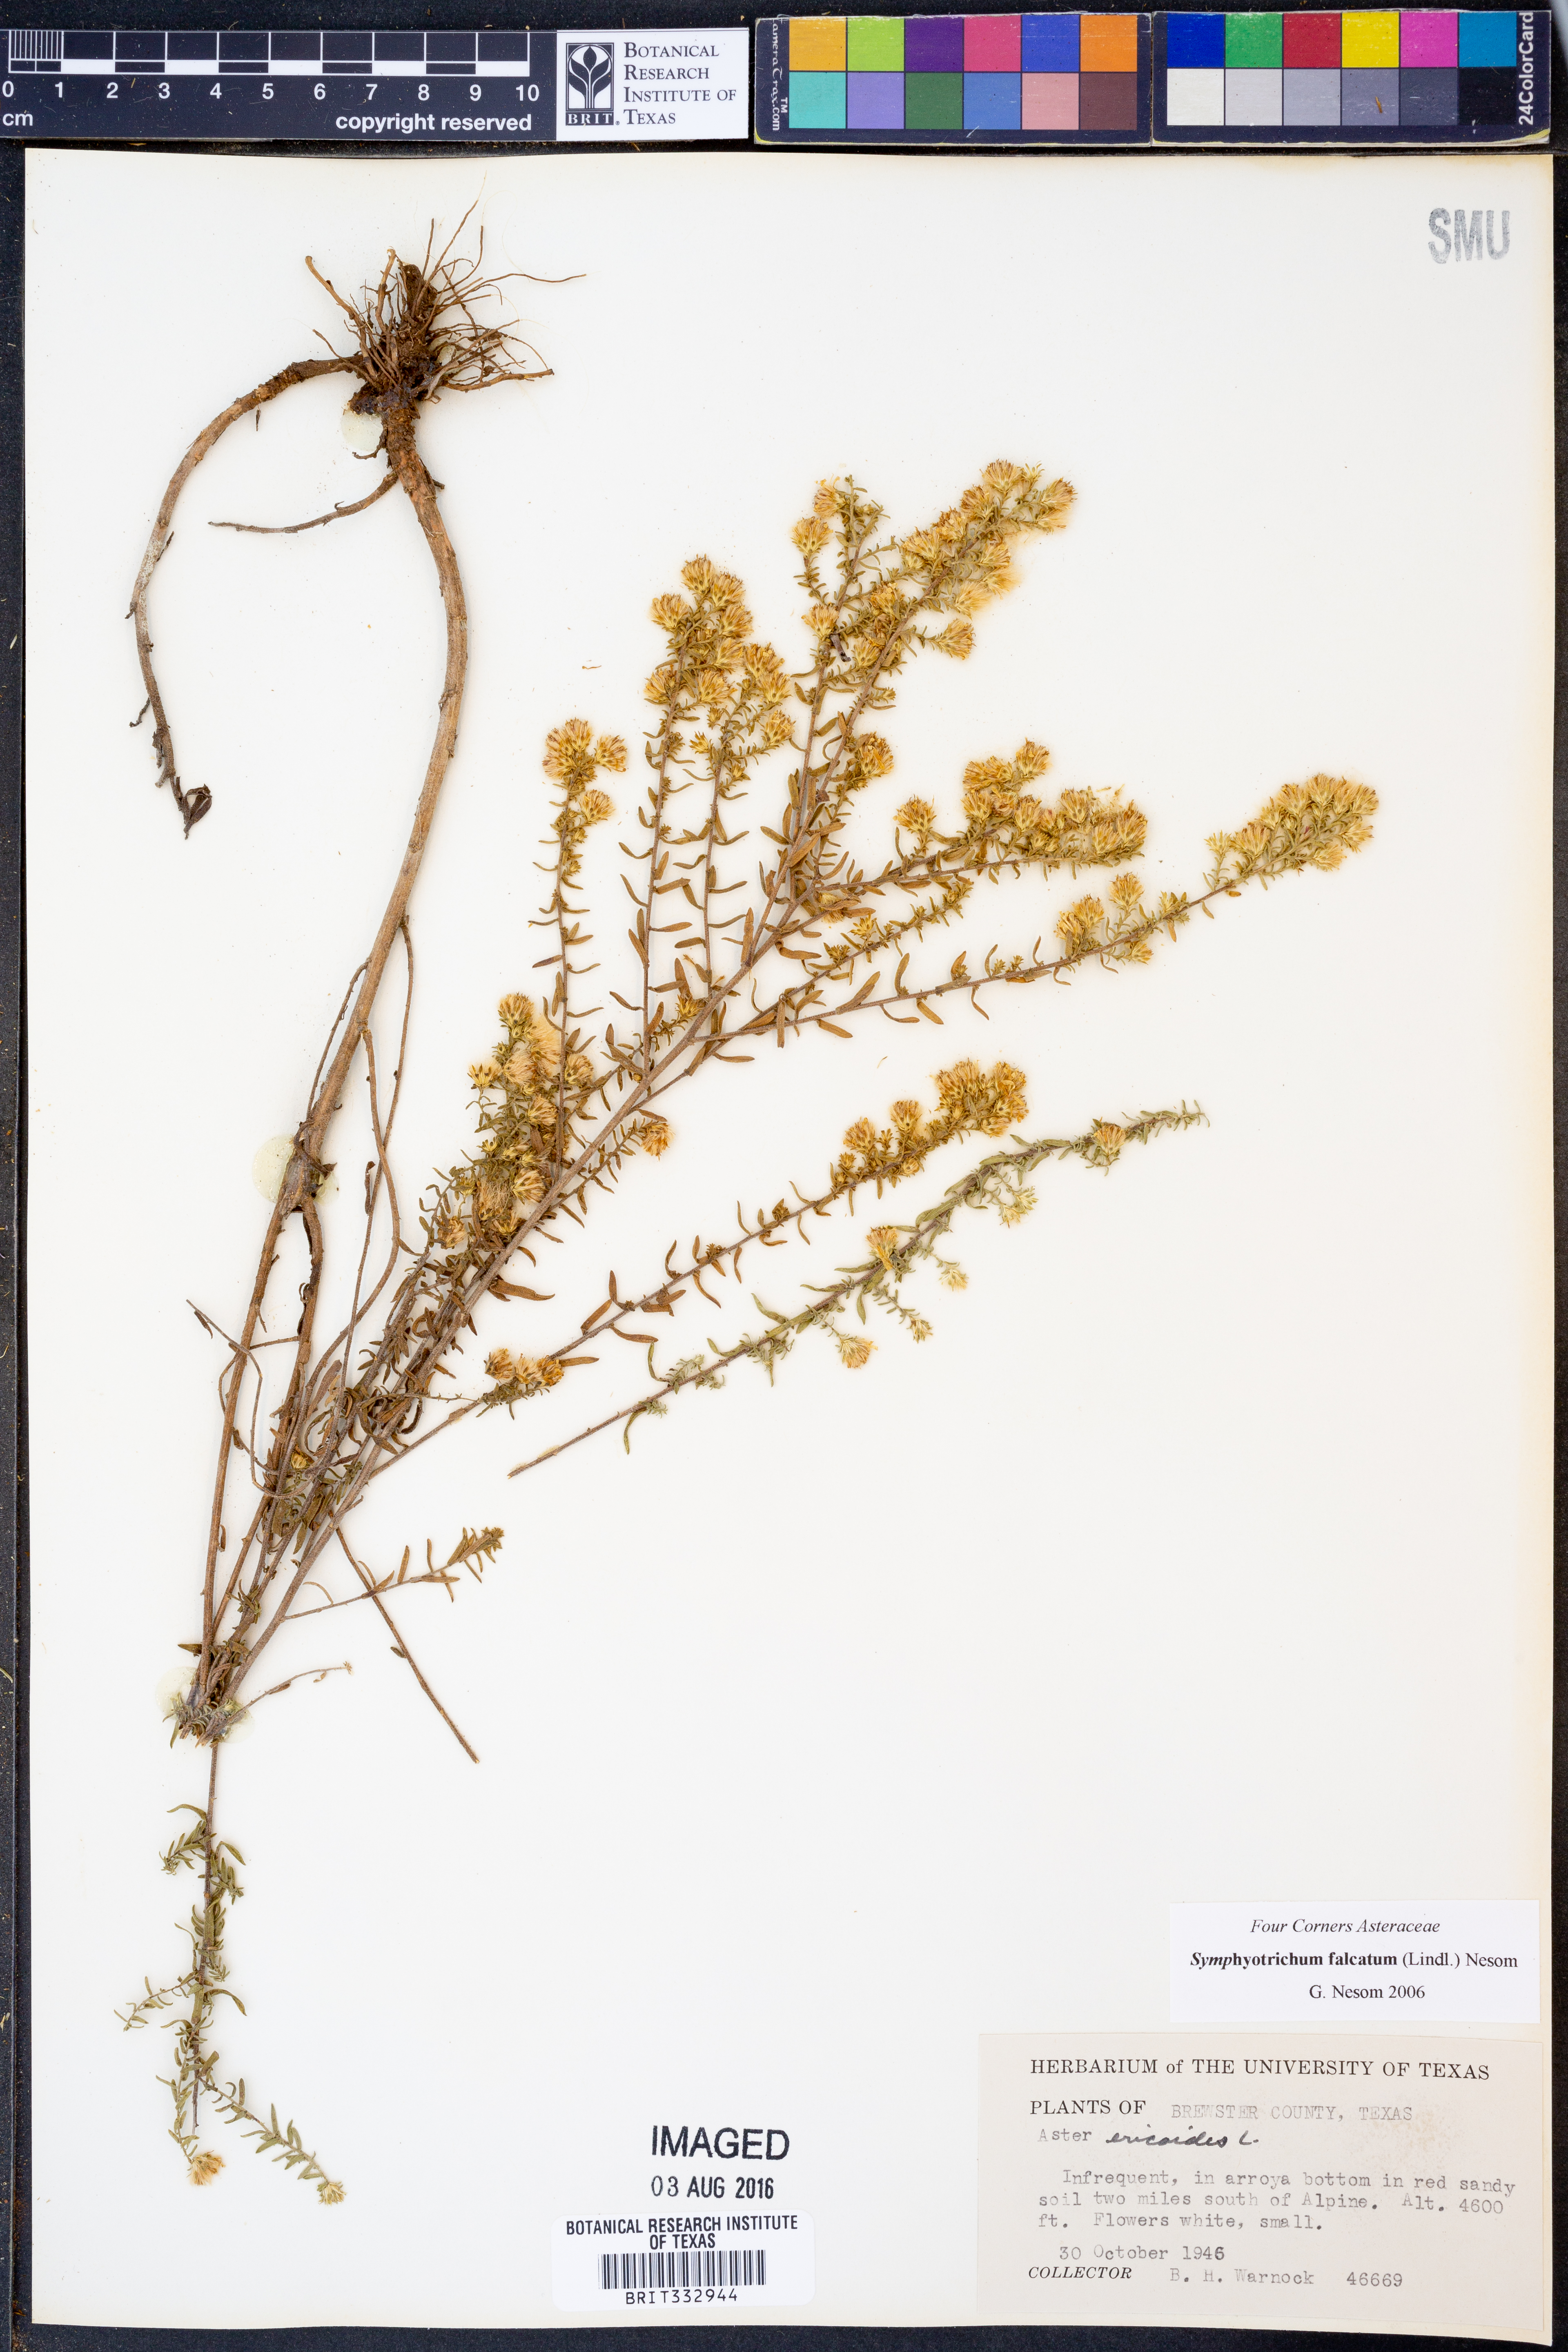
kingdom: Plantae
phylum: Tracheophyta
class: Magnoliopsida
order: Asterales
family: Asteraceae
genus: Symphyotrichum
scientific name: Symphyotrichum falcatum
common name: Creeping white prairie aster
